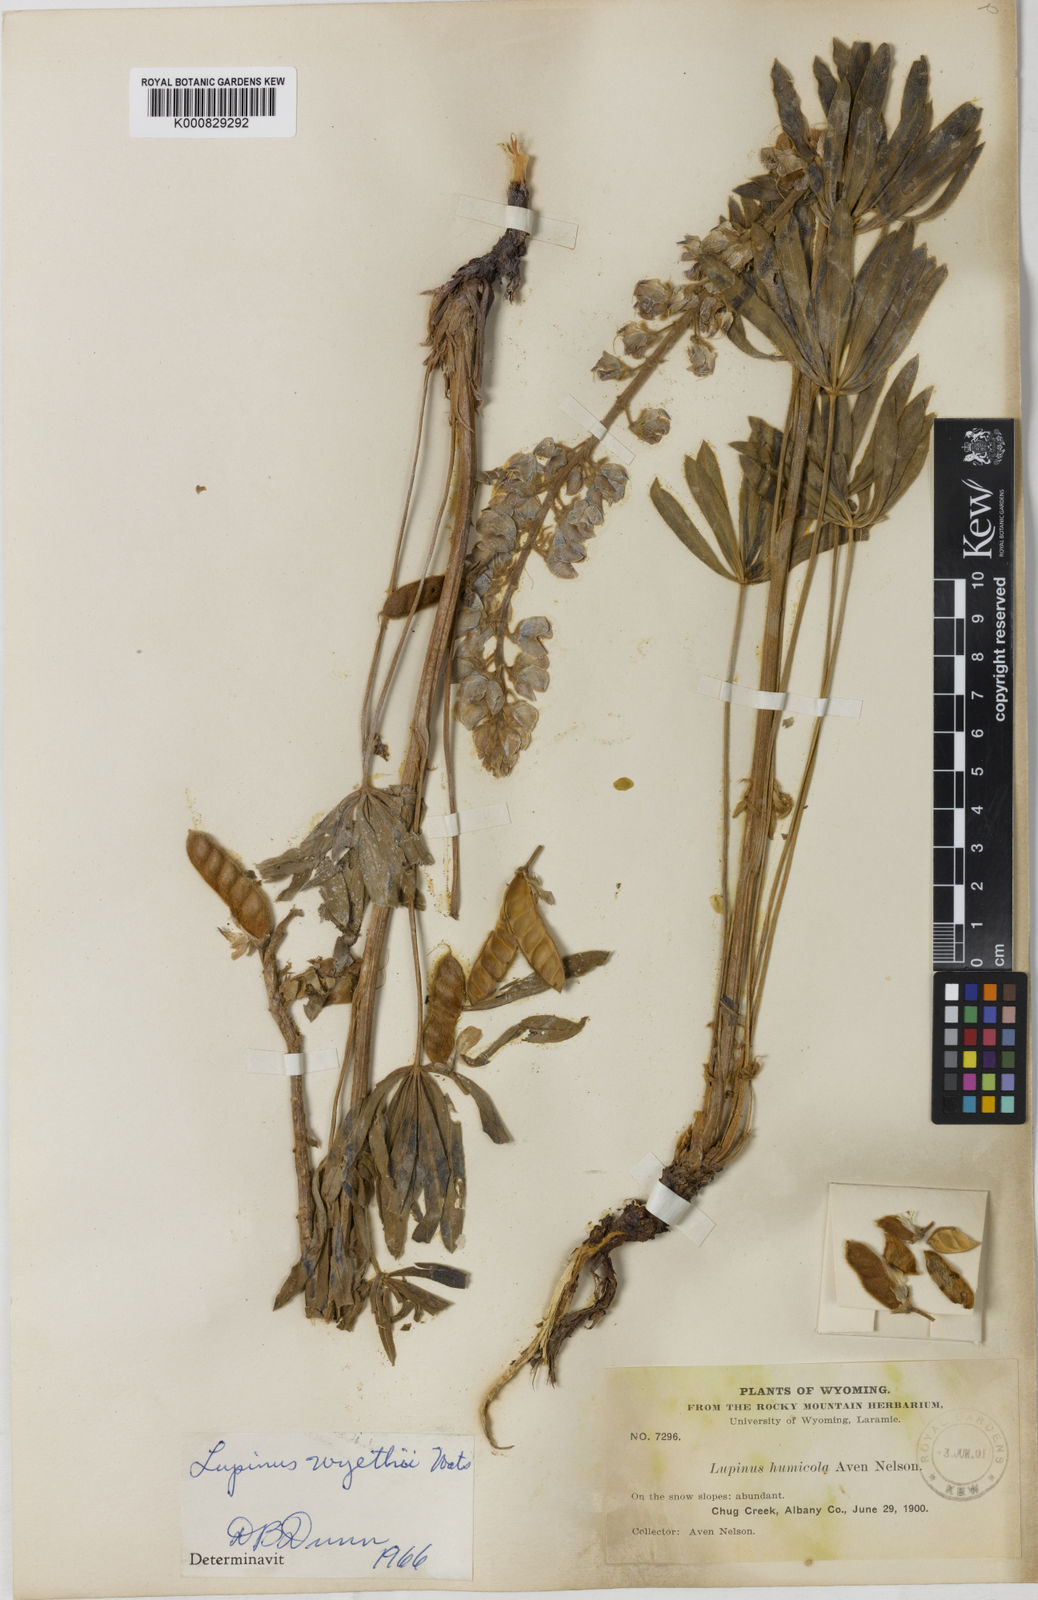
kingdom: Plantae
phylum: Tracheophyta
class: Magnoliopsida
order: Fabales
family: Fabaceae
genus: Lupinus
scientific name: Lupinus wyethii
